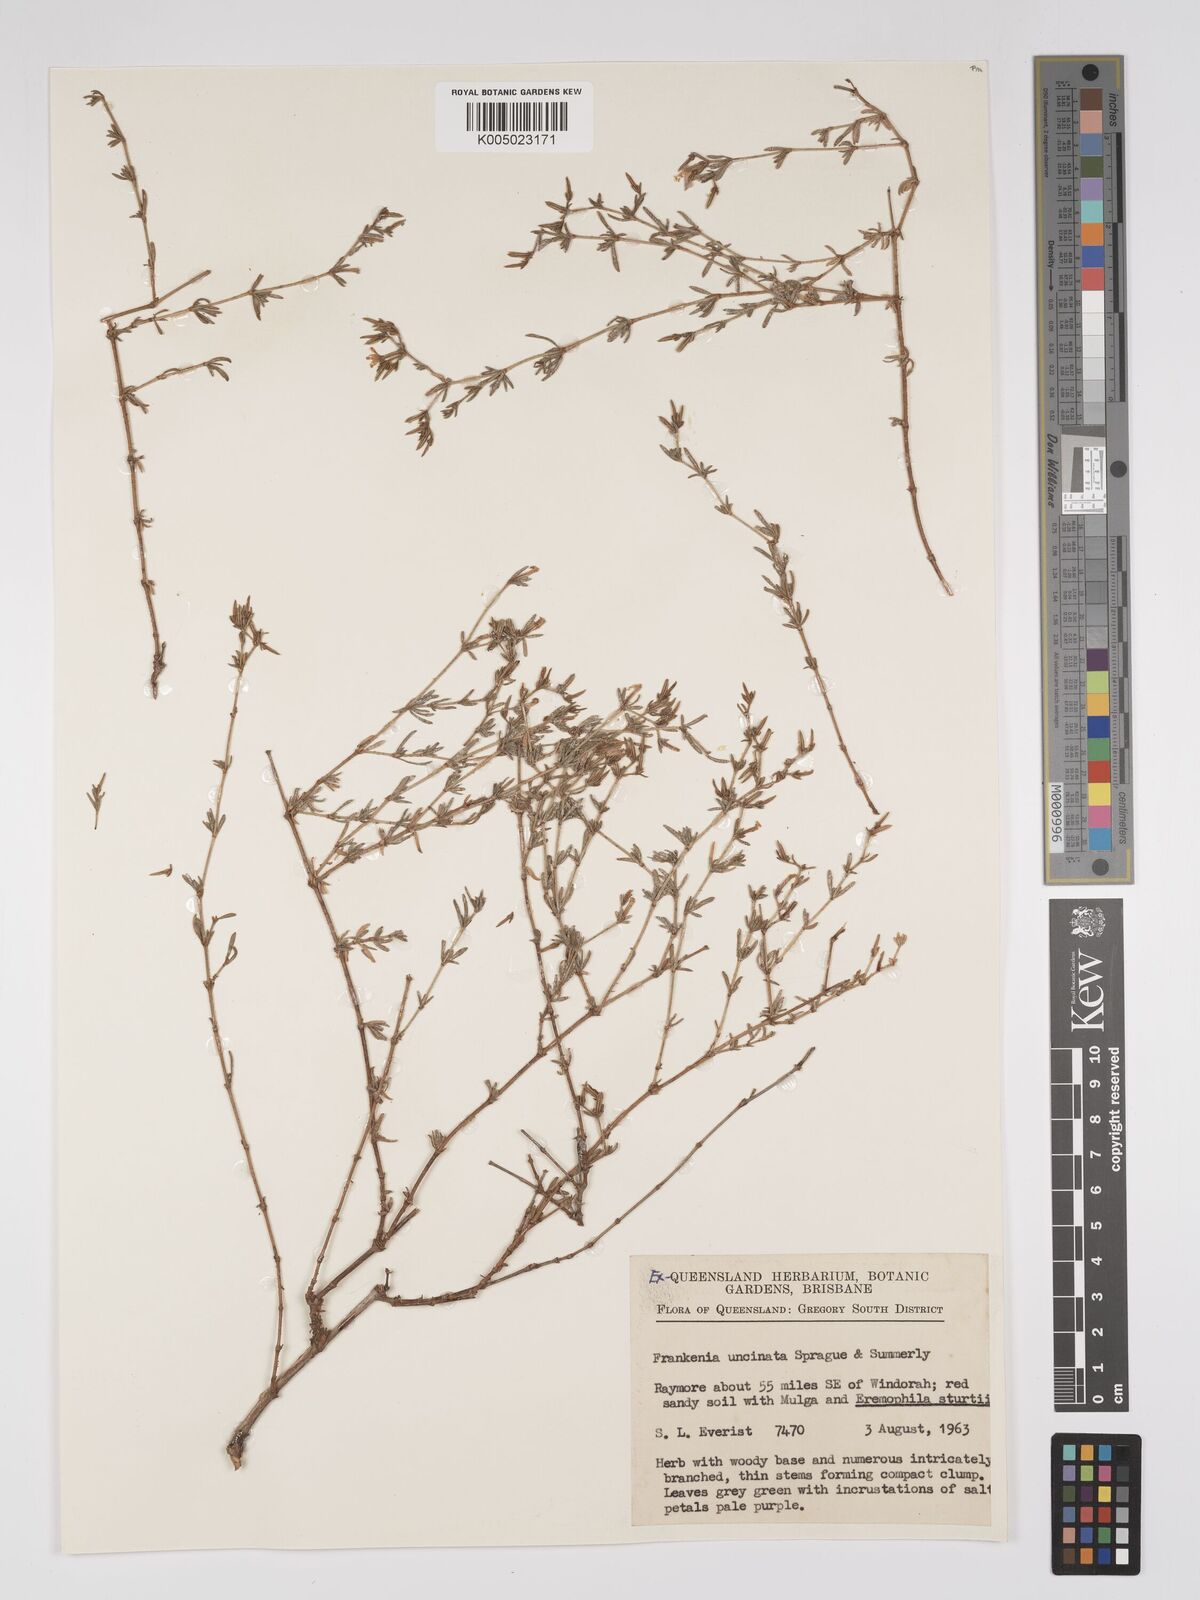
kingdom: Plantae
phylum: Tracheophyta
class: Magnoliopsida
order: Caryophyllales
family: Frankeniaceae
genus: Frankenia
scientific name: Frankenia uncinata
